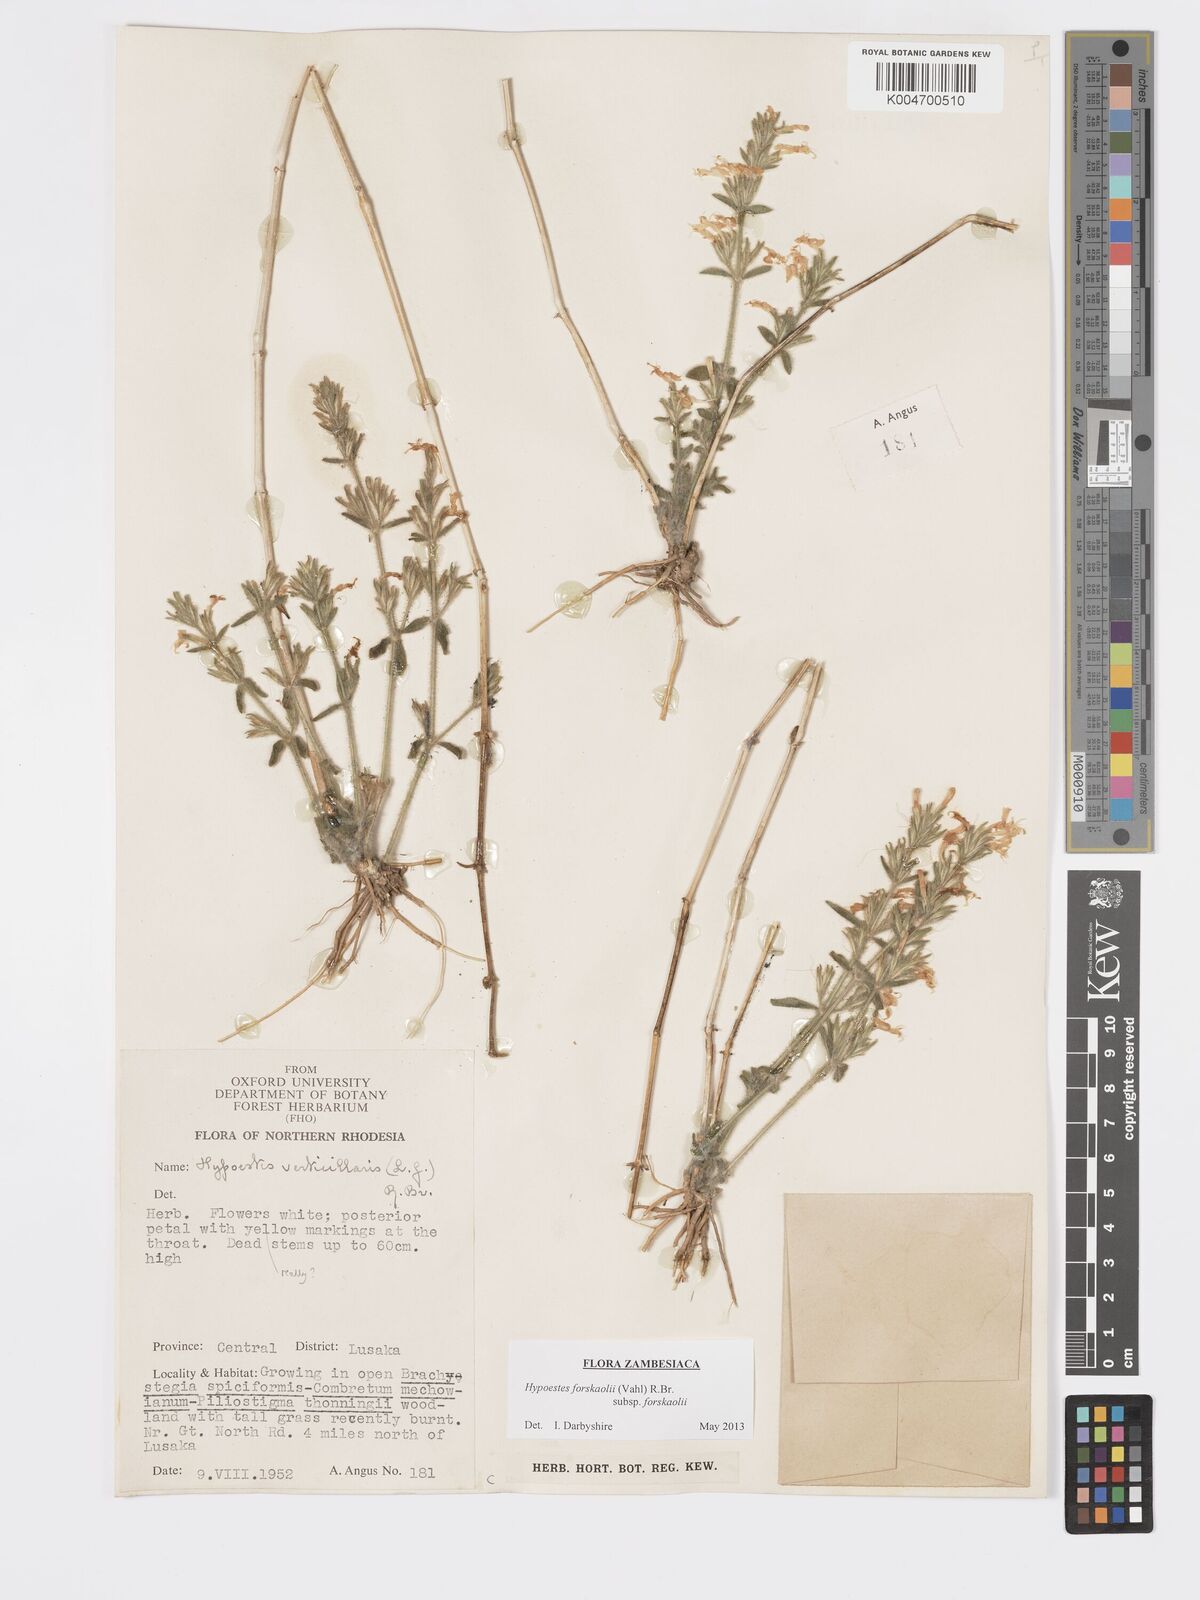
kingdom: Plantae
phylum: Tracheophyta
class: Magnoliopsida
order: Lamiales
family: Acanthaceae
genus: Hypoestes
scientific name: Hypoestes forskaolii
